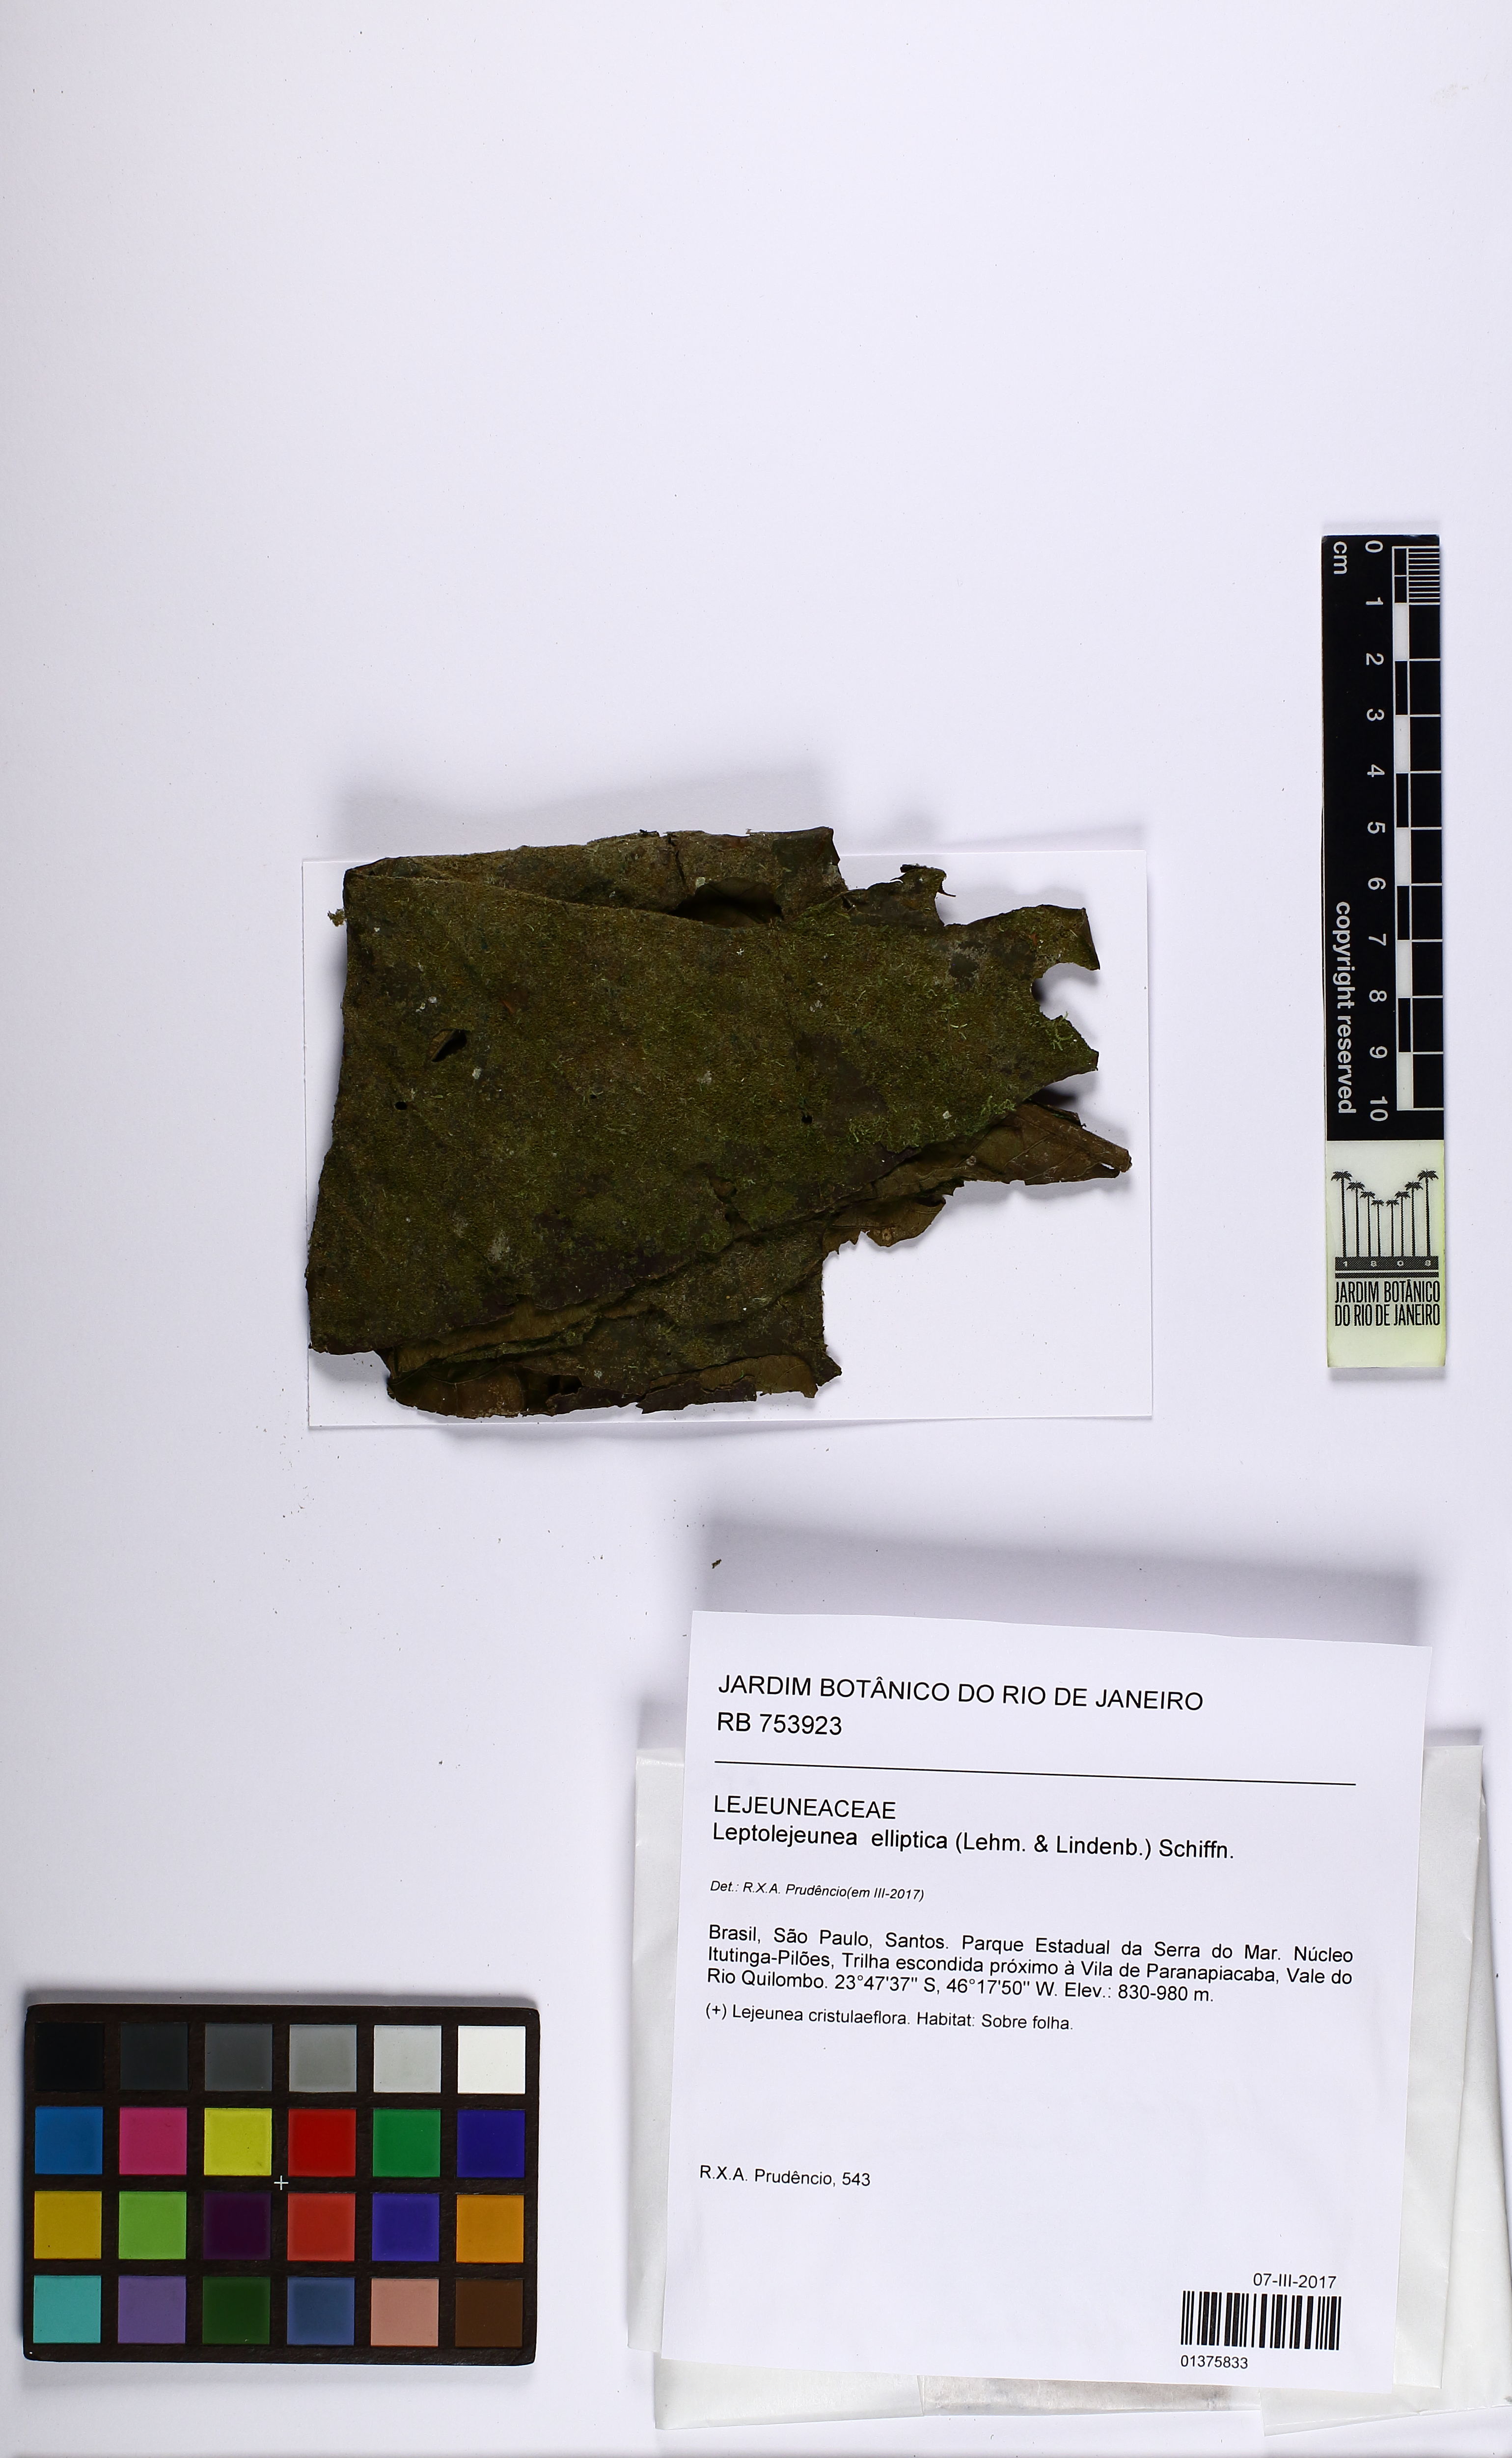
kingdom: Plantae
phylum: Marchantiophyta
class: Jungermanniopsida
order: Porellales
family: Lejeuneaceae
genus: Leptolejeunea
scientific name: Leptolejeunea elliptica
